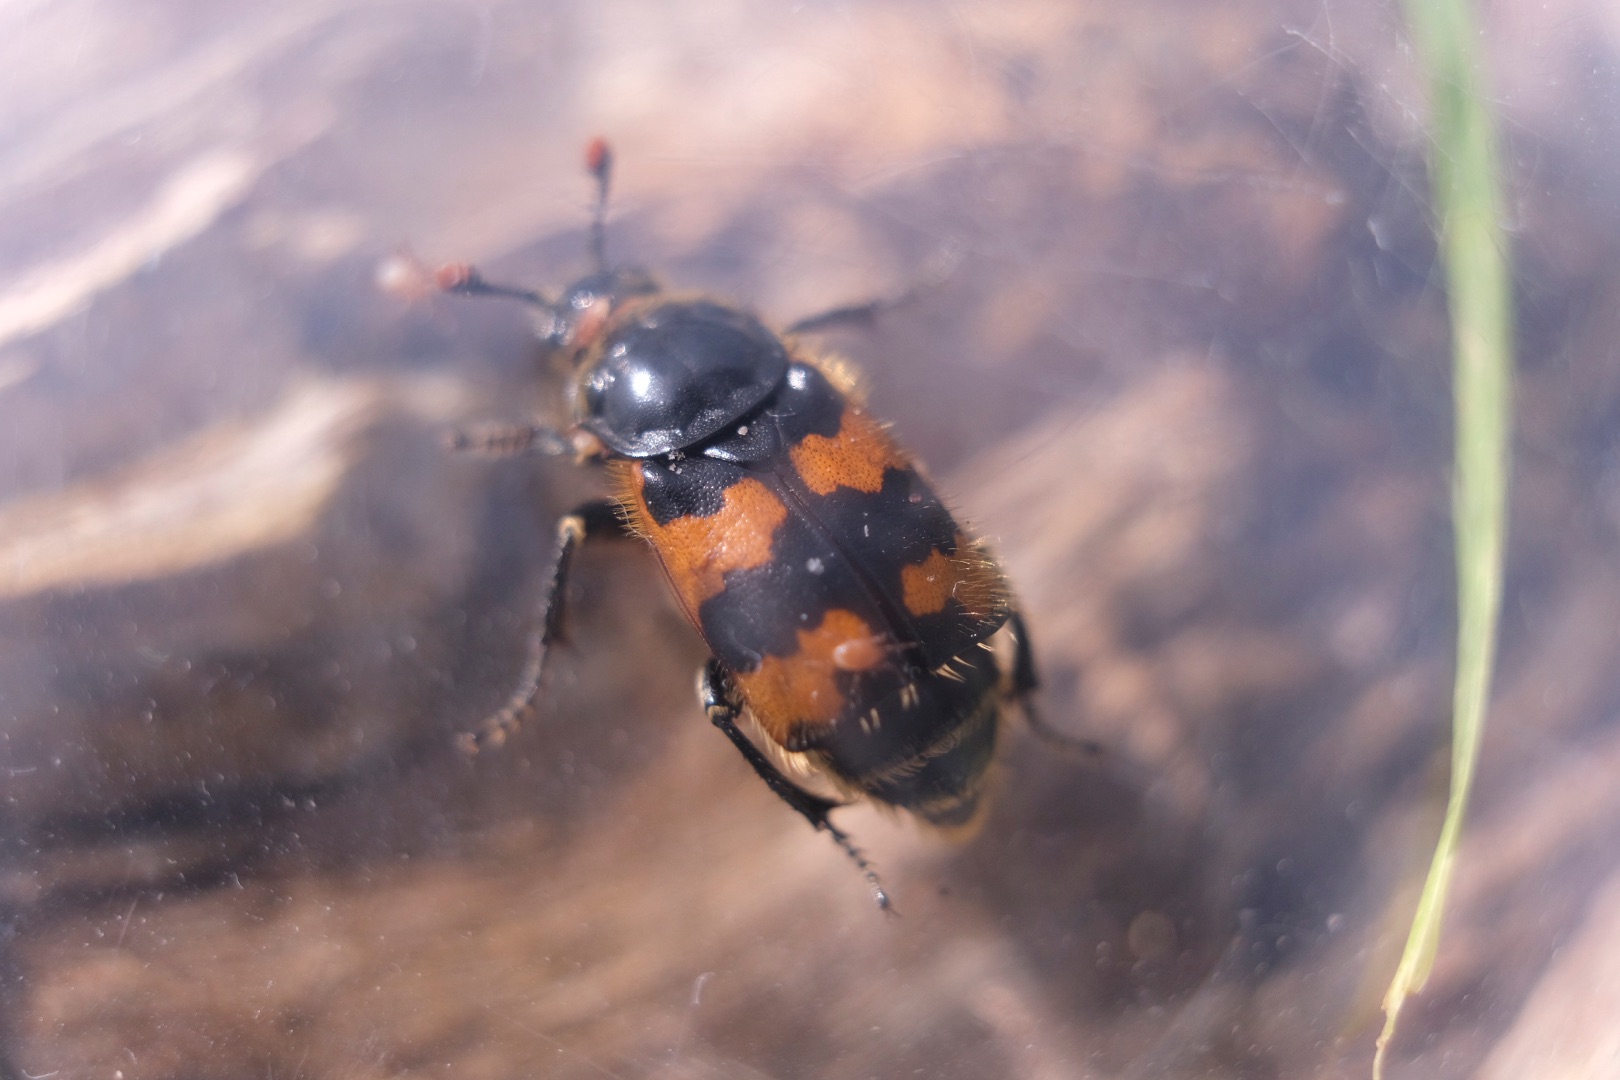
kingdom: Animalia
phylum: Arthropoda
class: Insecta
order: Coleoptera
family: Staphylinidae
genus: Nicrophorus
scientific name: Nicrophorus vespillo
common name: Krumbenet ådselgraver
